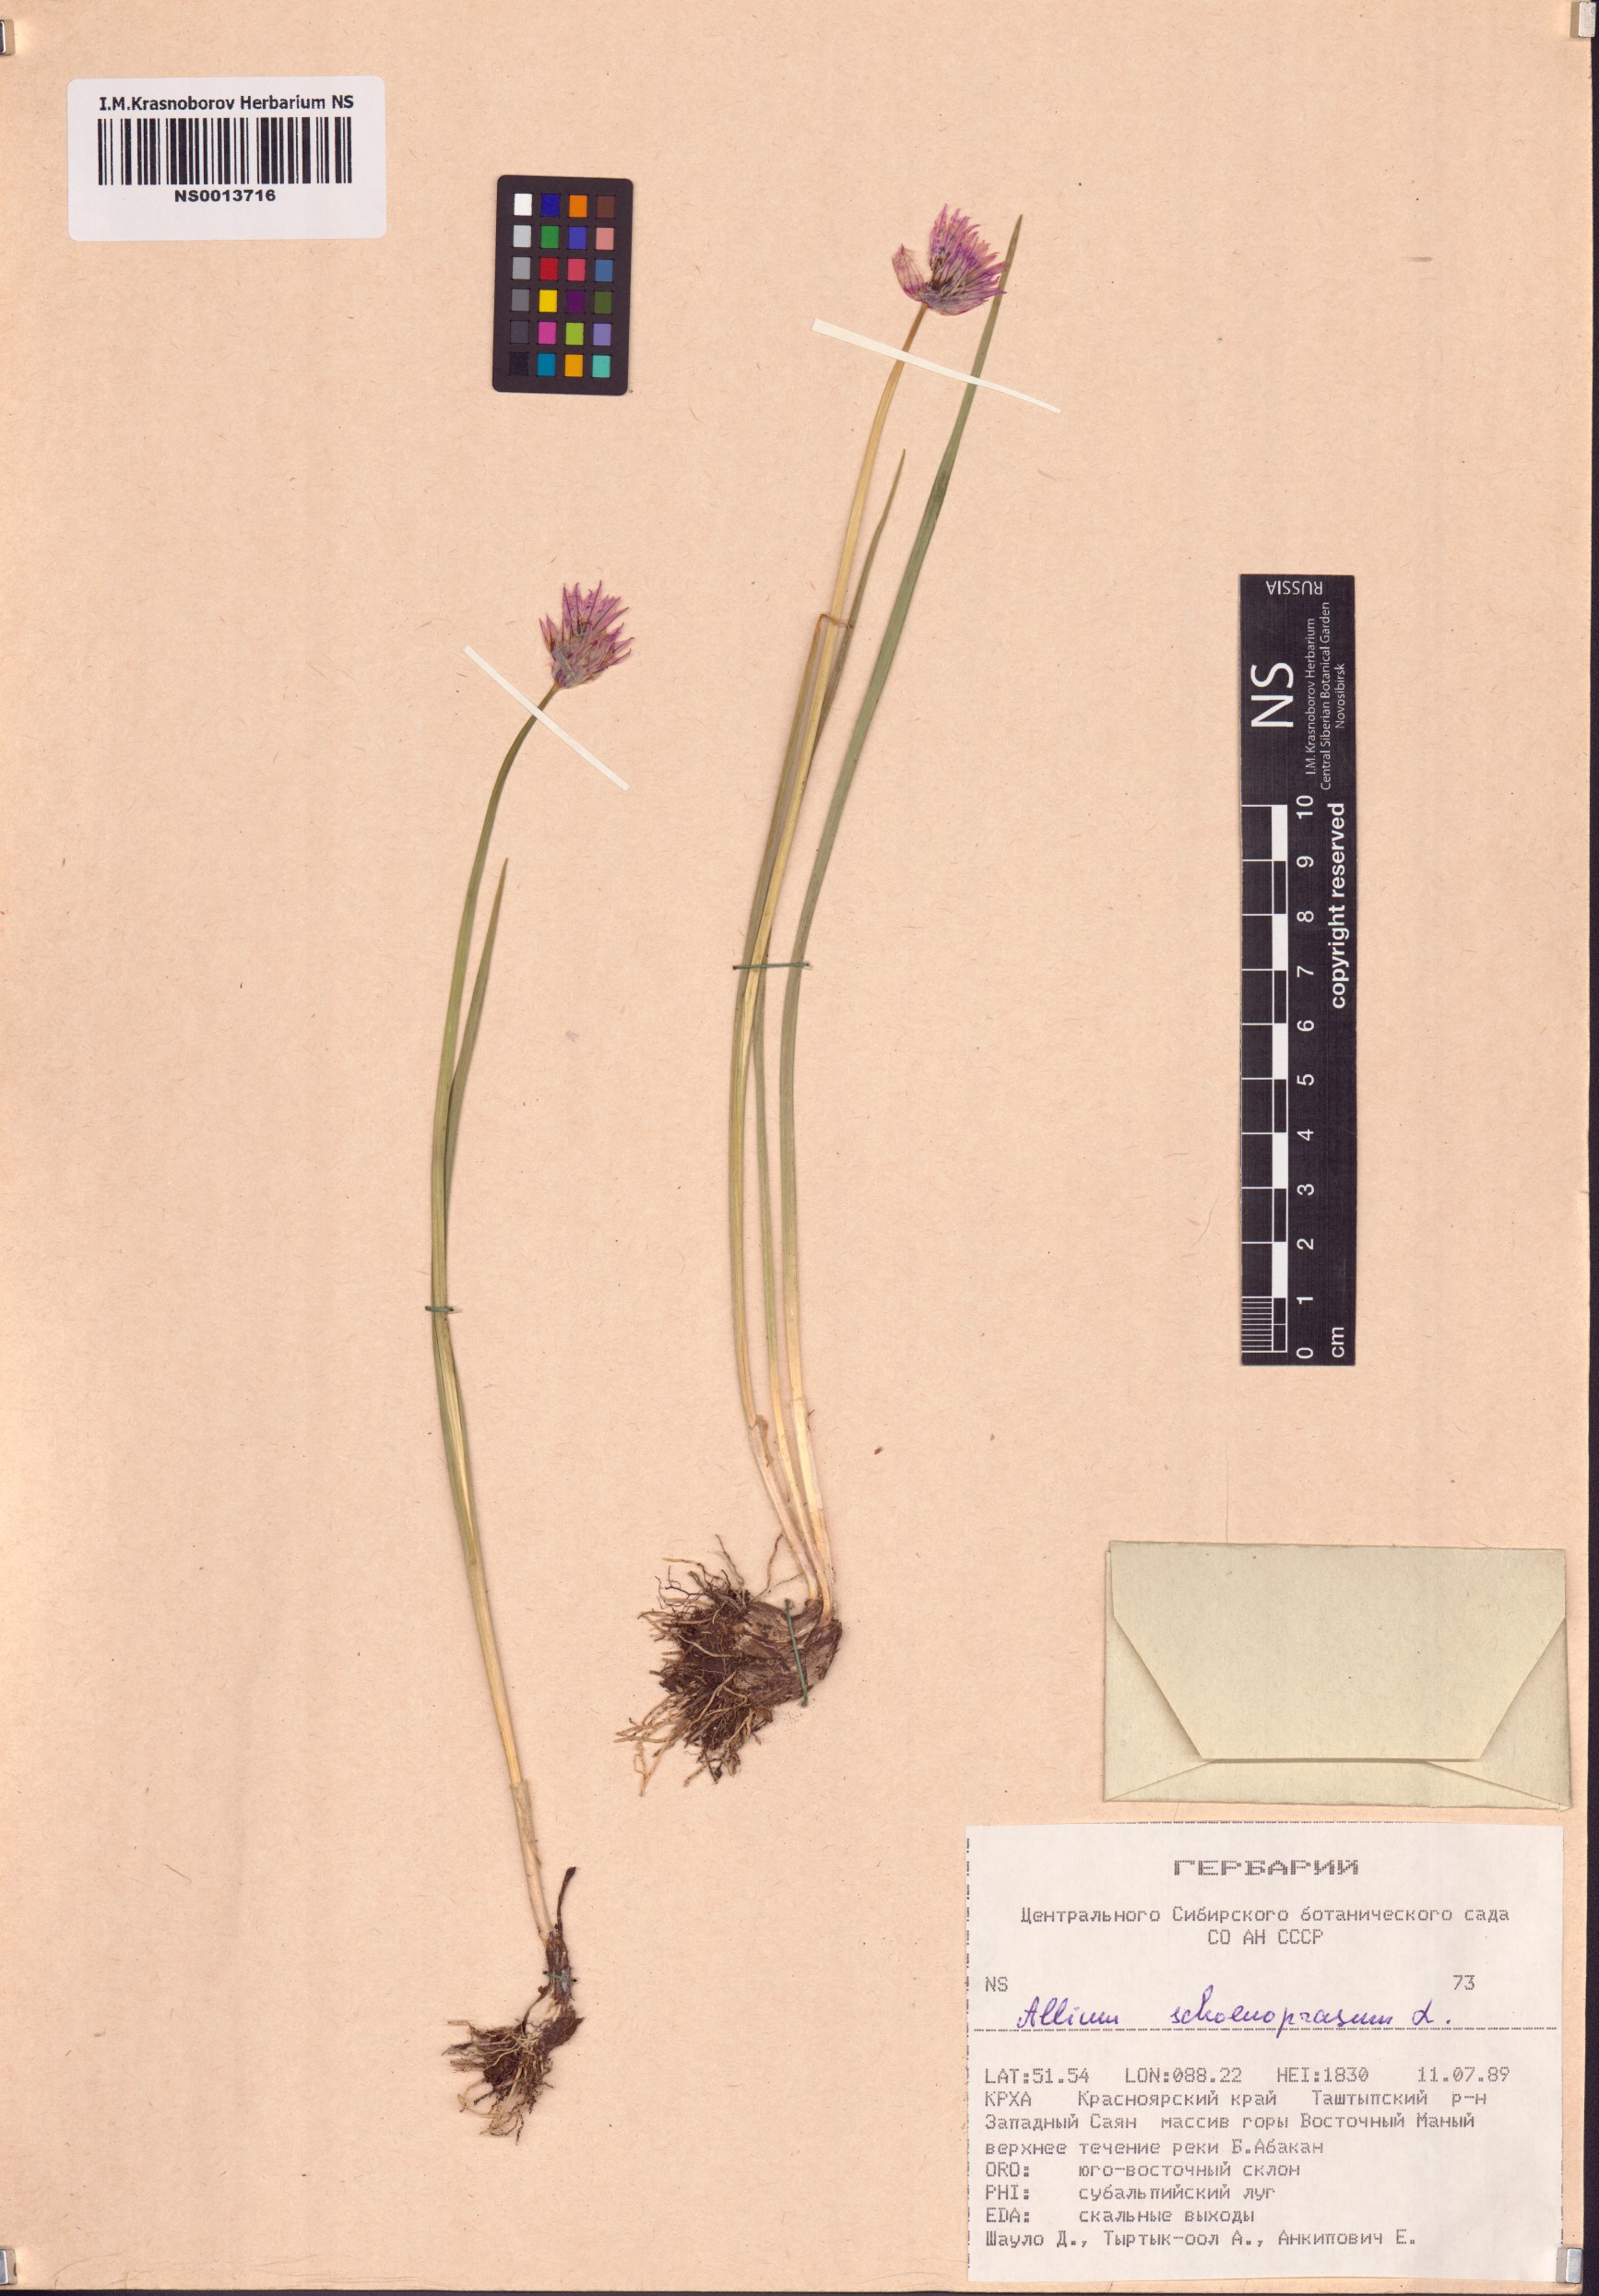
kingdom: Plantae
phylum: Tracheophyta
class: Liliopsida
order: Asparagales
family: Amaryllidaceae
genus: Allium
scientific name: Allium schoenoprasum
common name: Chives
